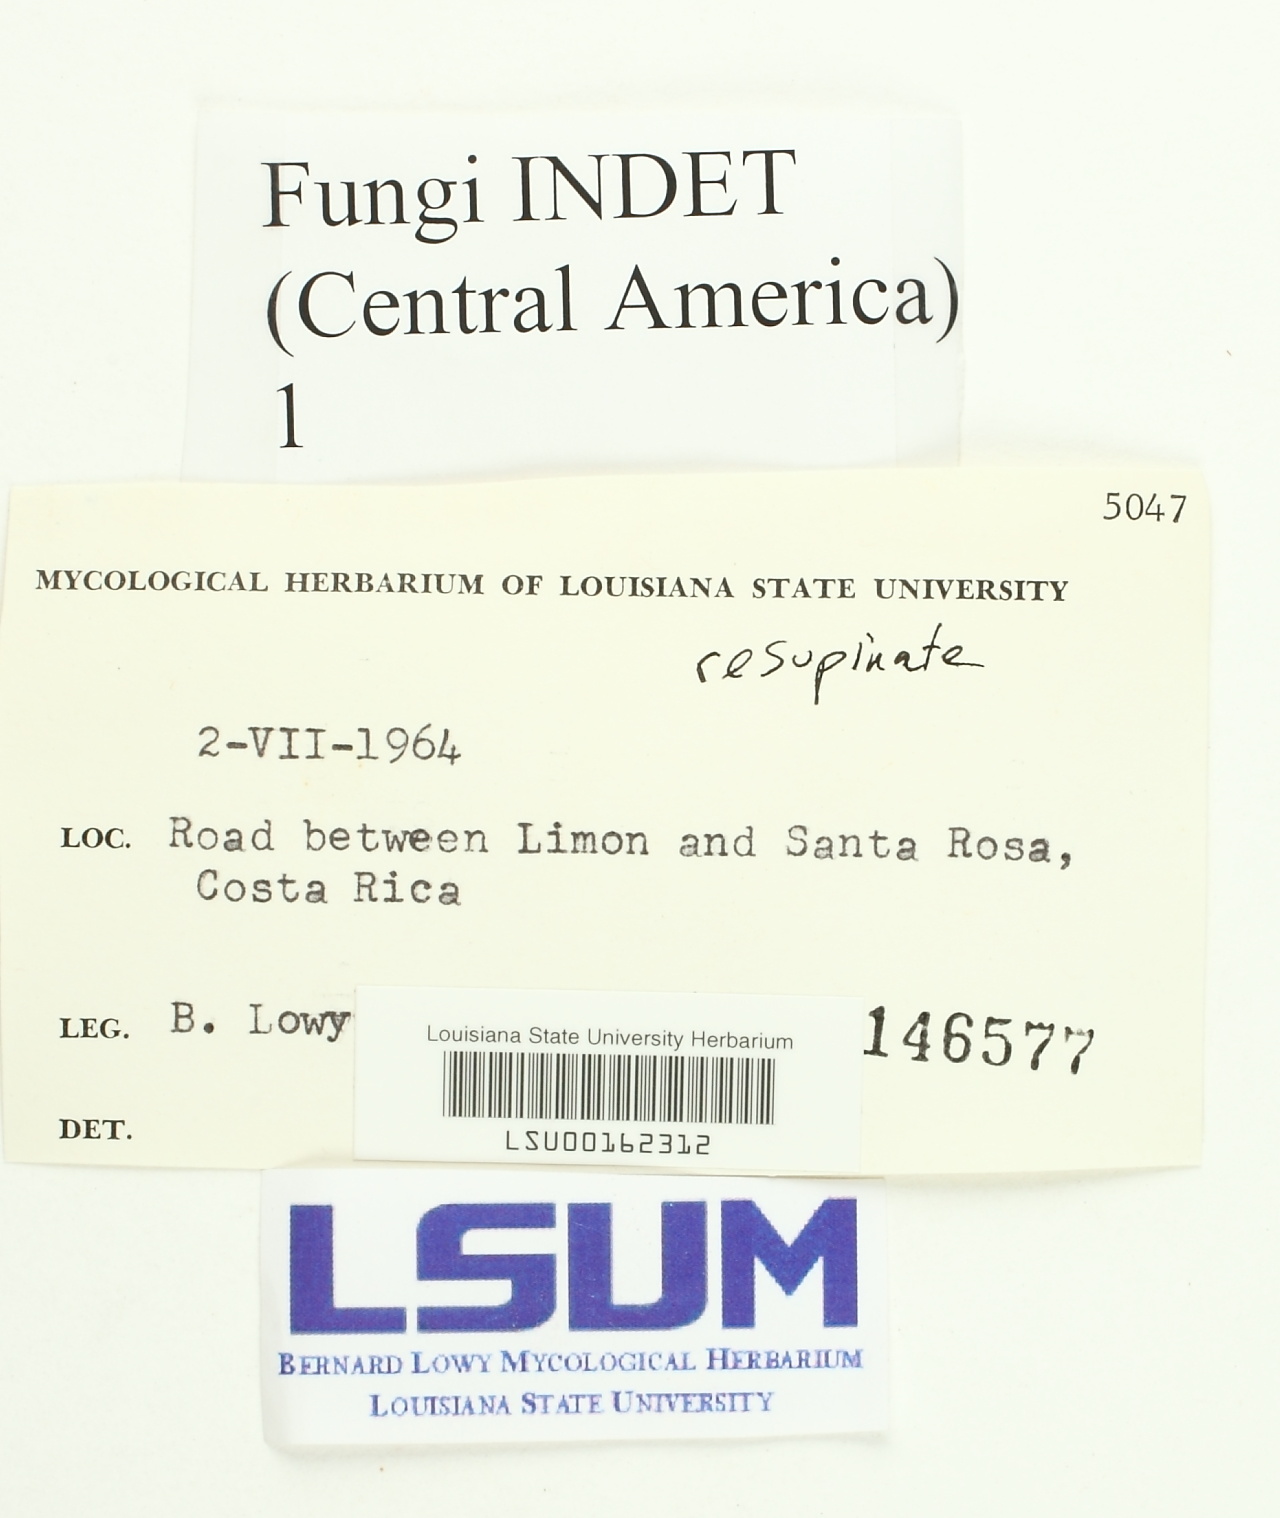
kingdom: Fungi
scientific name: Fungi
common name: Fungi
